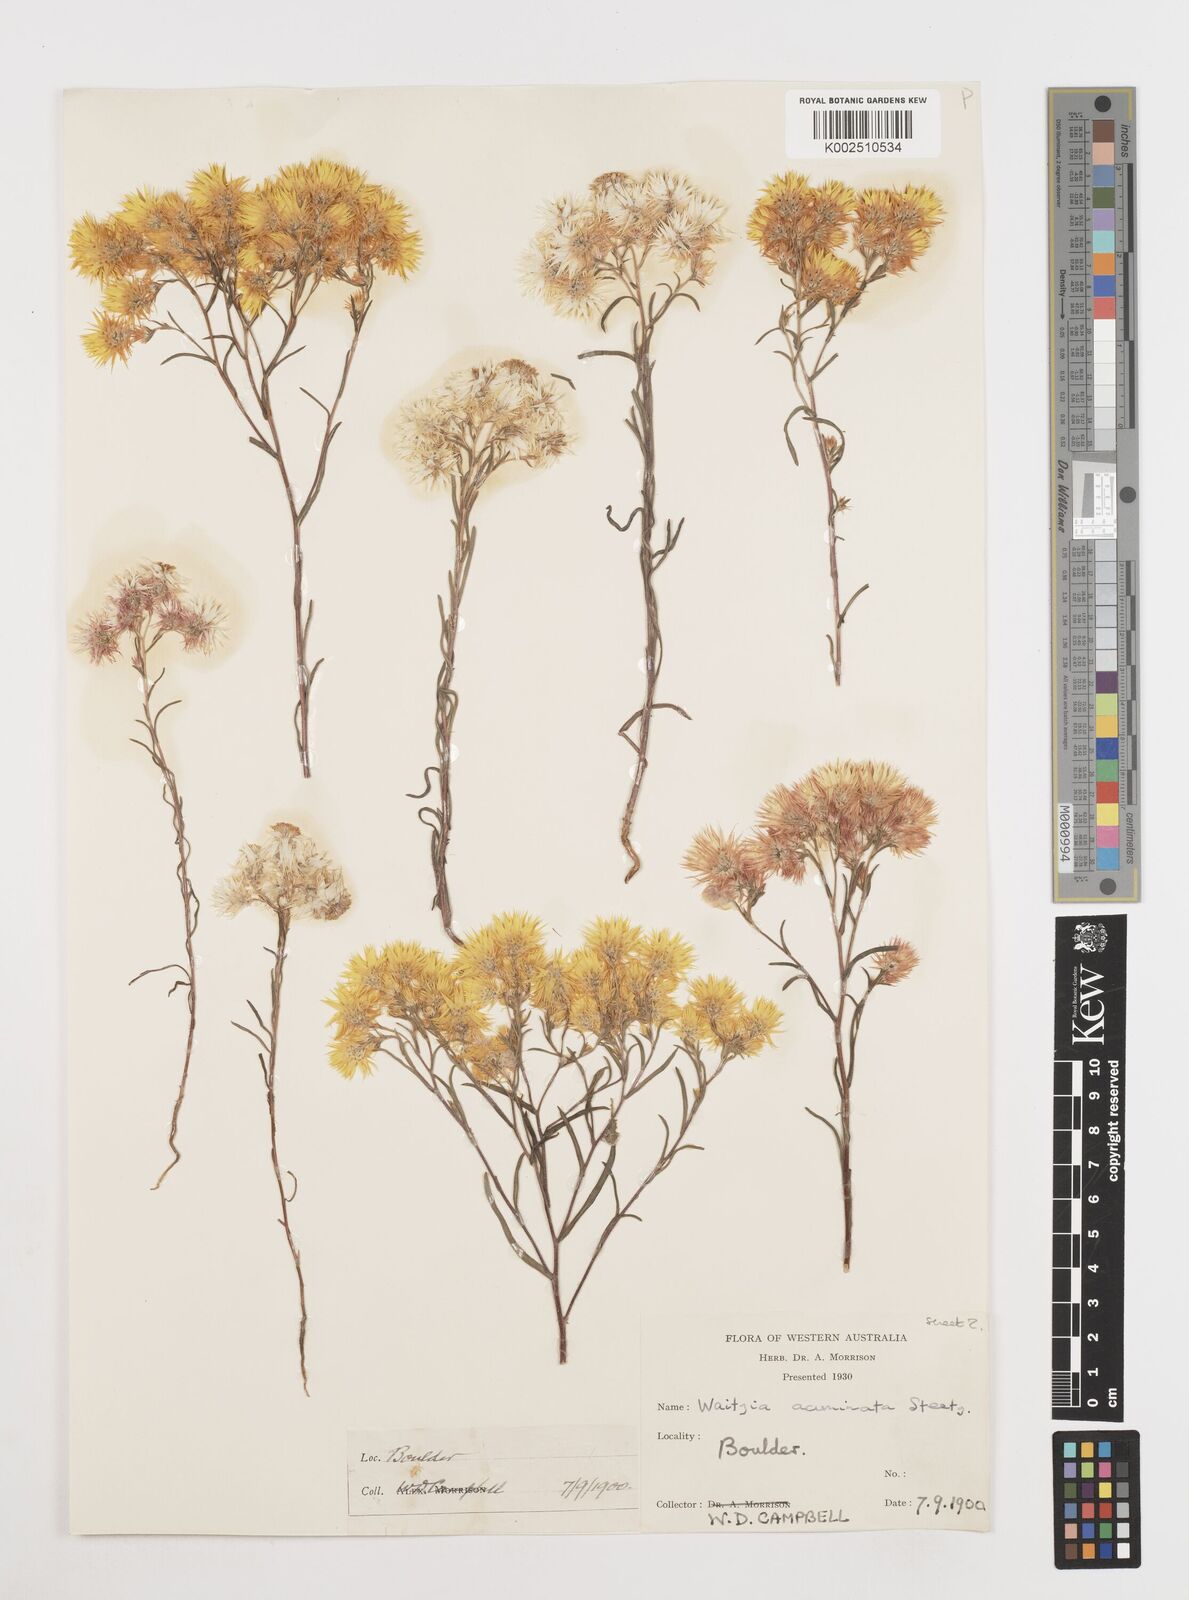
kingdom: Plantae
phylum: Tracheophyta
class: Magnoliopsida
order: Asterales
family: Asteraceae
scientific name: Asteraceae
